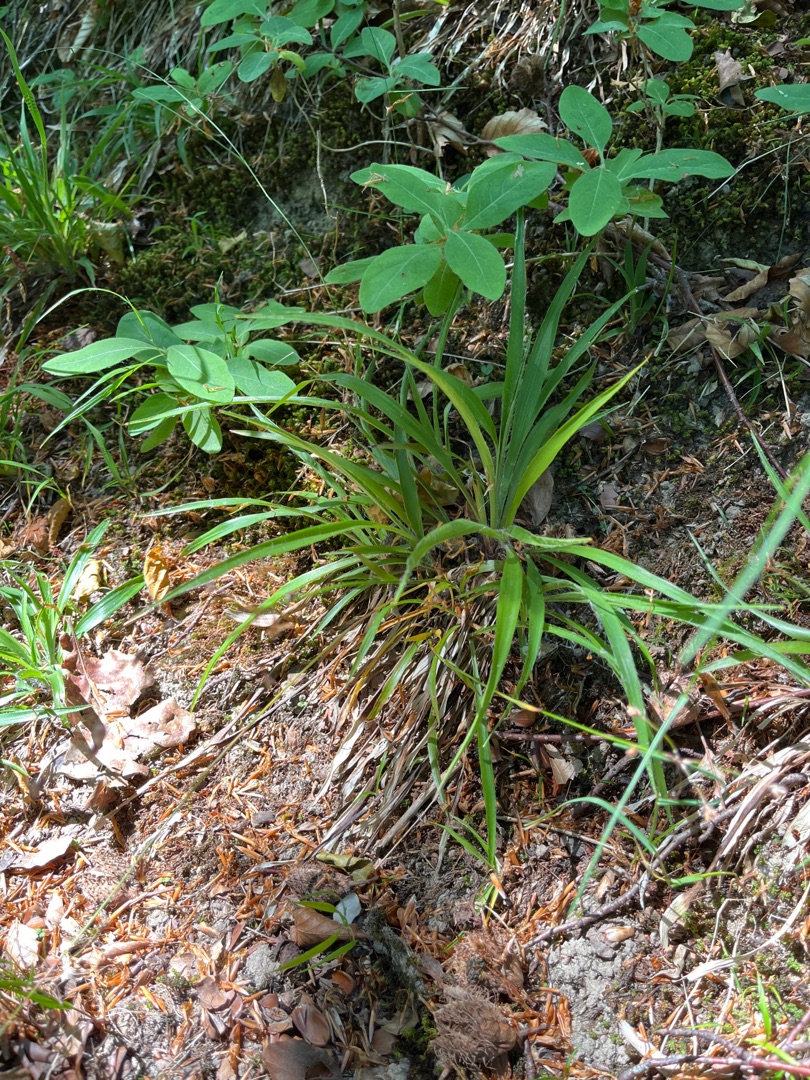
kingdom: Plantae
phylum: Tracheophyta
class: Liliopsida
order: Poales
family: Juncaceae
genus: Luzula
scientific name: Luzula pilosa
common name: Håret frytle
